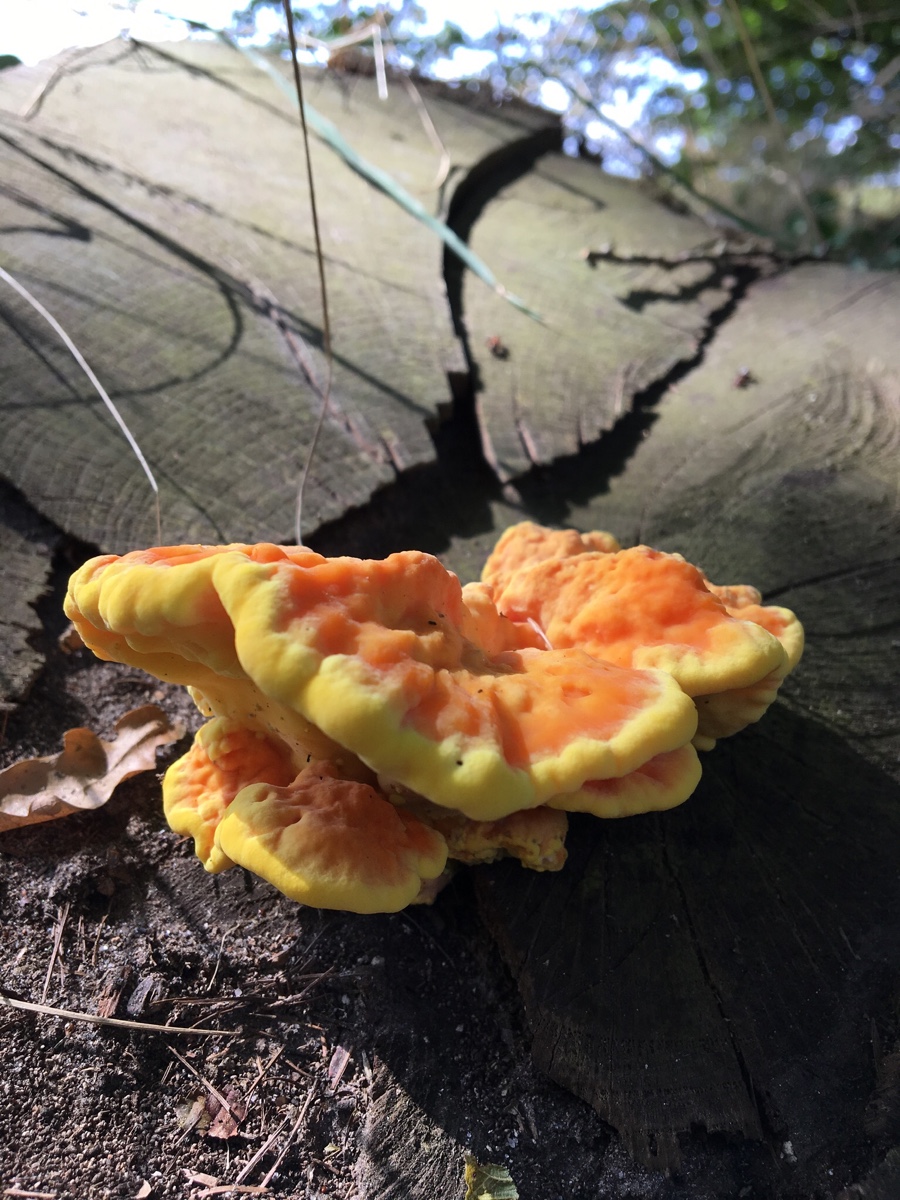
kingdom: Fungi
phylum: Basidiomycota
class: Agaricomycetes
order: Polyporales
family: Laetiporaceae
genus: Laetiporus
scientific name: Laetiporus sulphureus
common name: svovlporesvamp
